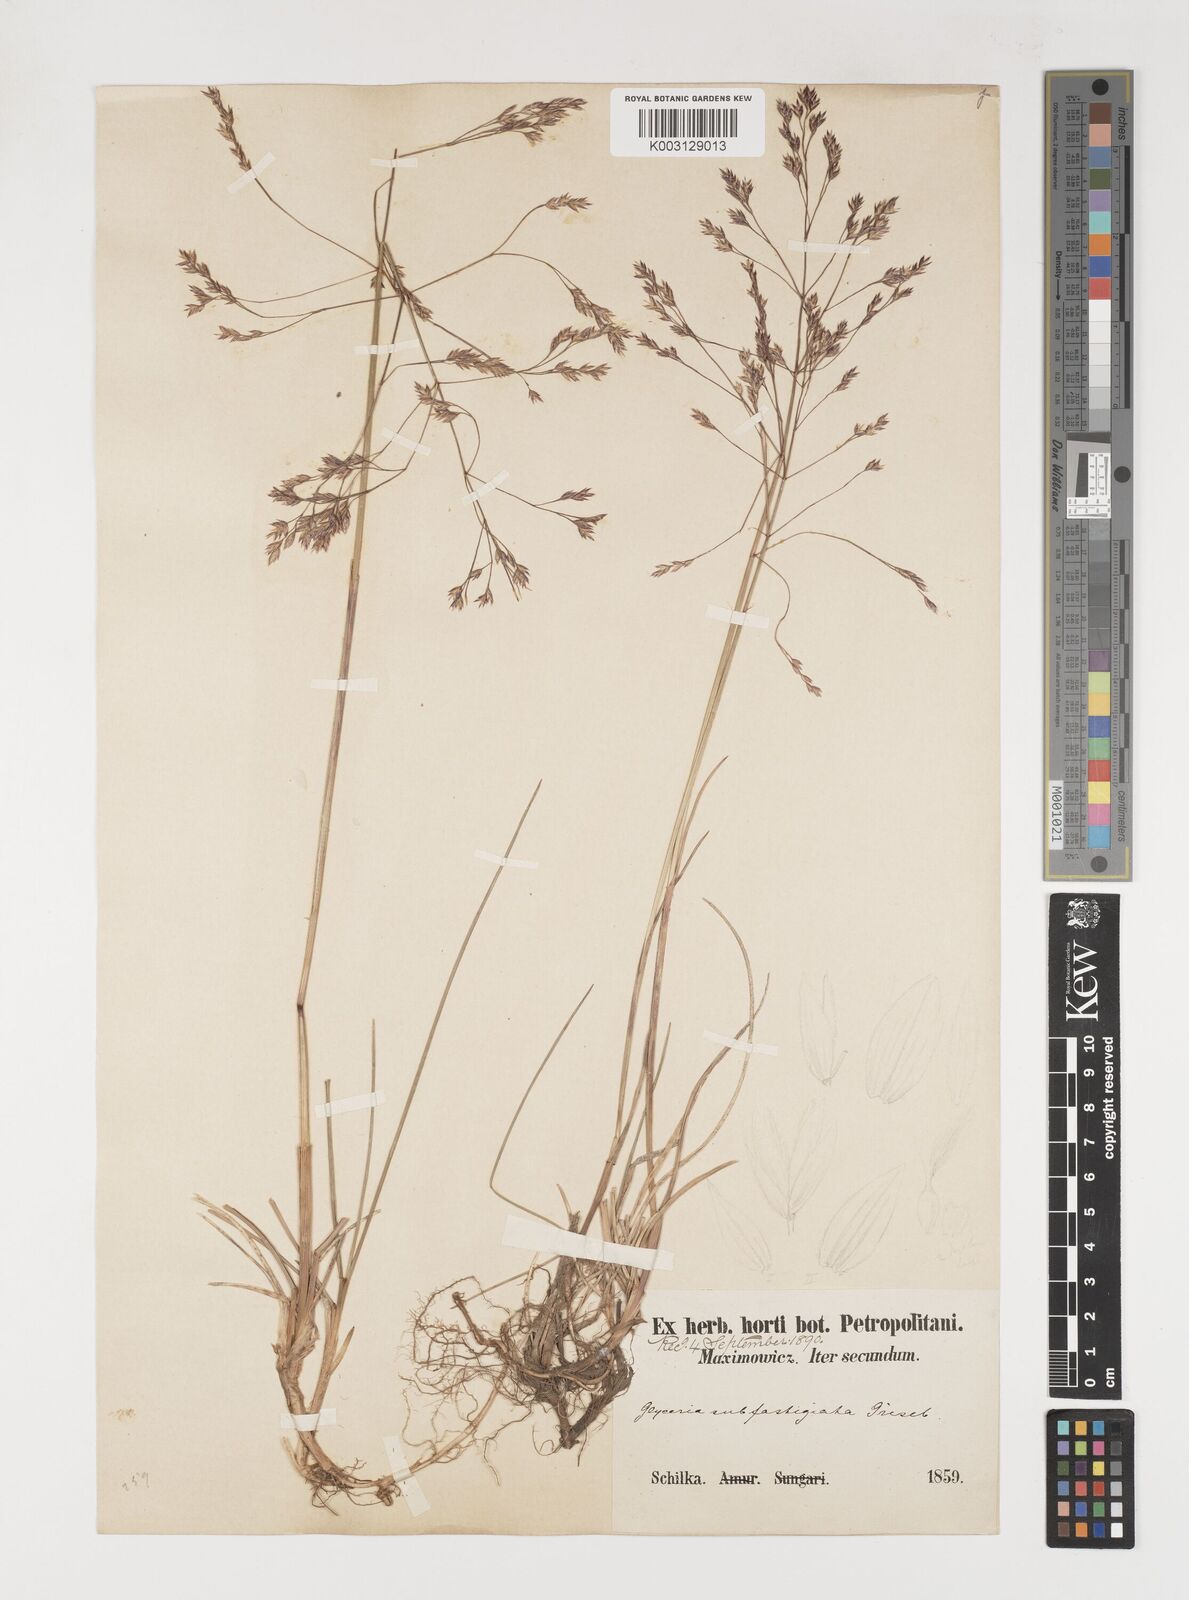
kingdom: Plantae
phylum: Tracheophyta
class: Liliopsida
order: Poales
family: Poaceae
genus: Arctopoa
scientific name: Arctopoa subfastigiata
